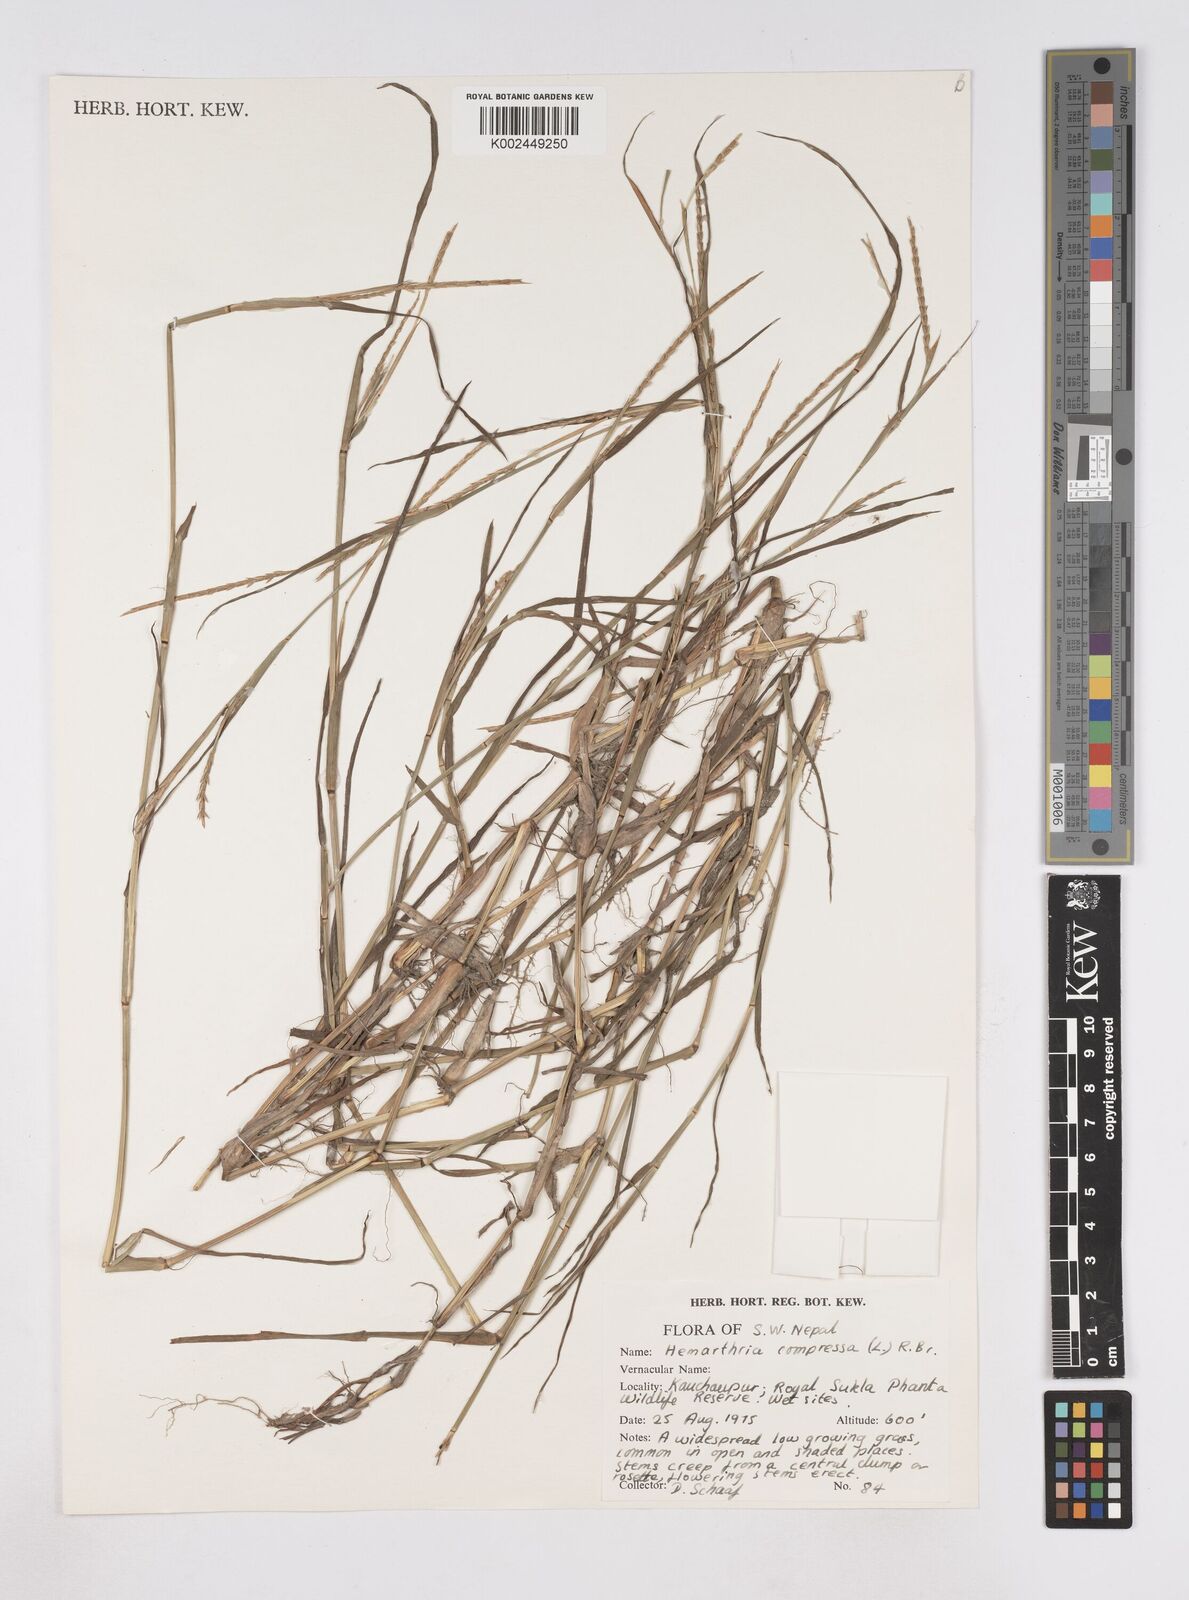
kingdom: Plantae
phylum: Tracheophyta
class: Liliopsida
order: Poales
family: Poaceae
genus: Hemarthria
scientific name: Hemarthria compressa
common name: Whip grass
